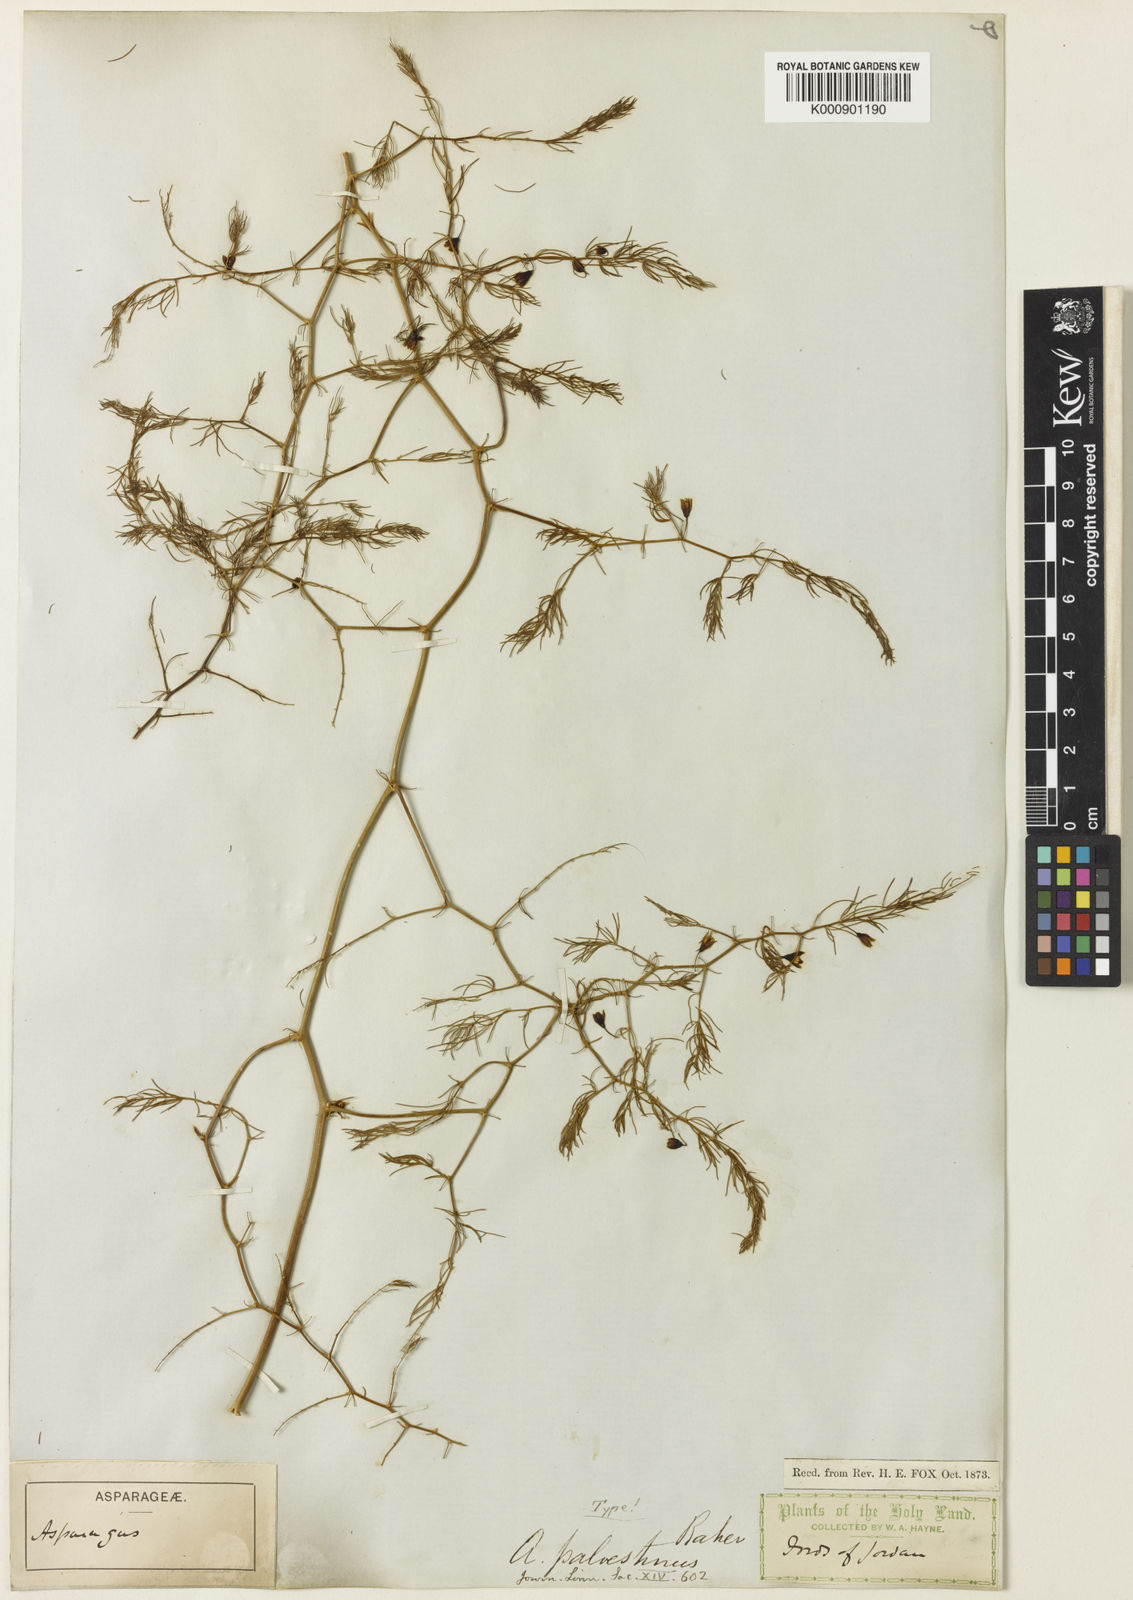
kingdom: Plantae
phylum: Tracheophyta
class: Liliopsida
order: Asparagales
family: Asparagaceae
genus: Asparagus
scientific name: Asparagus palaestinus
